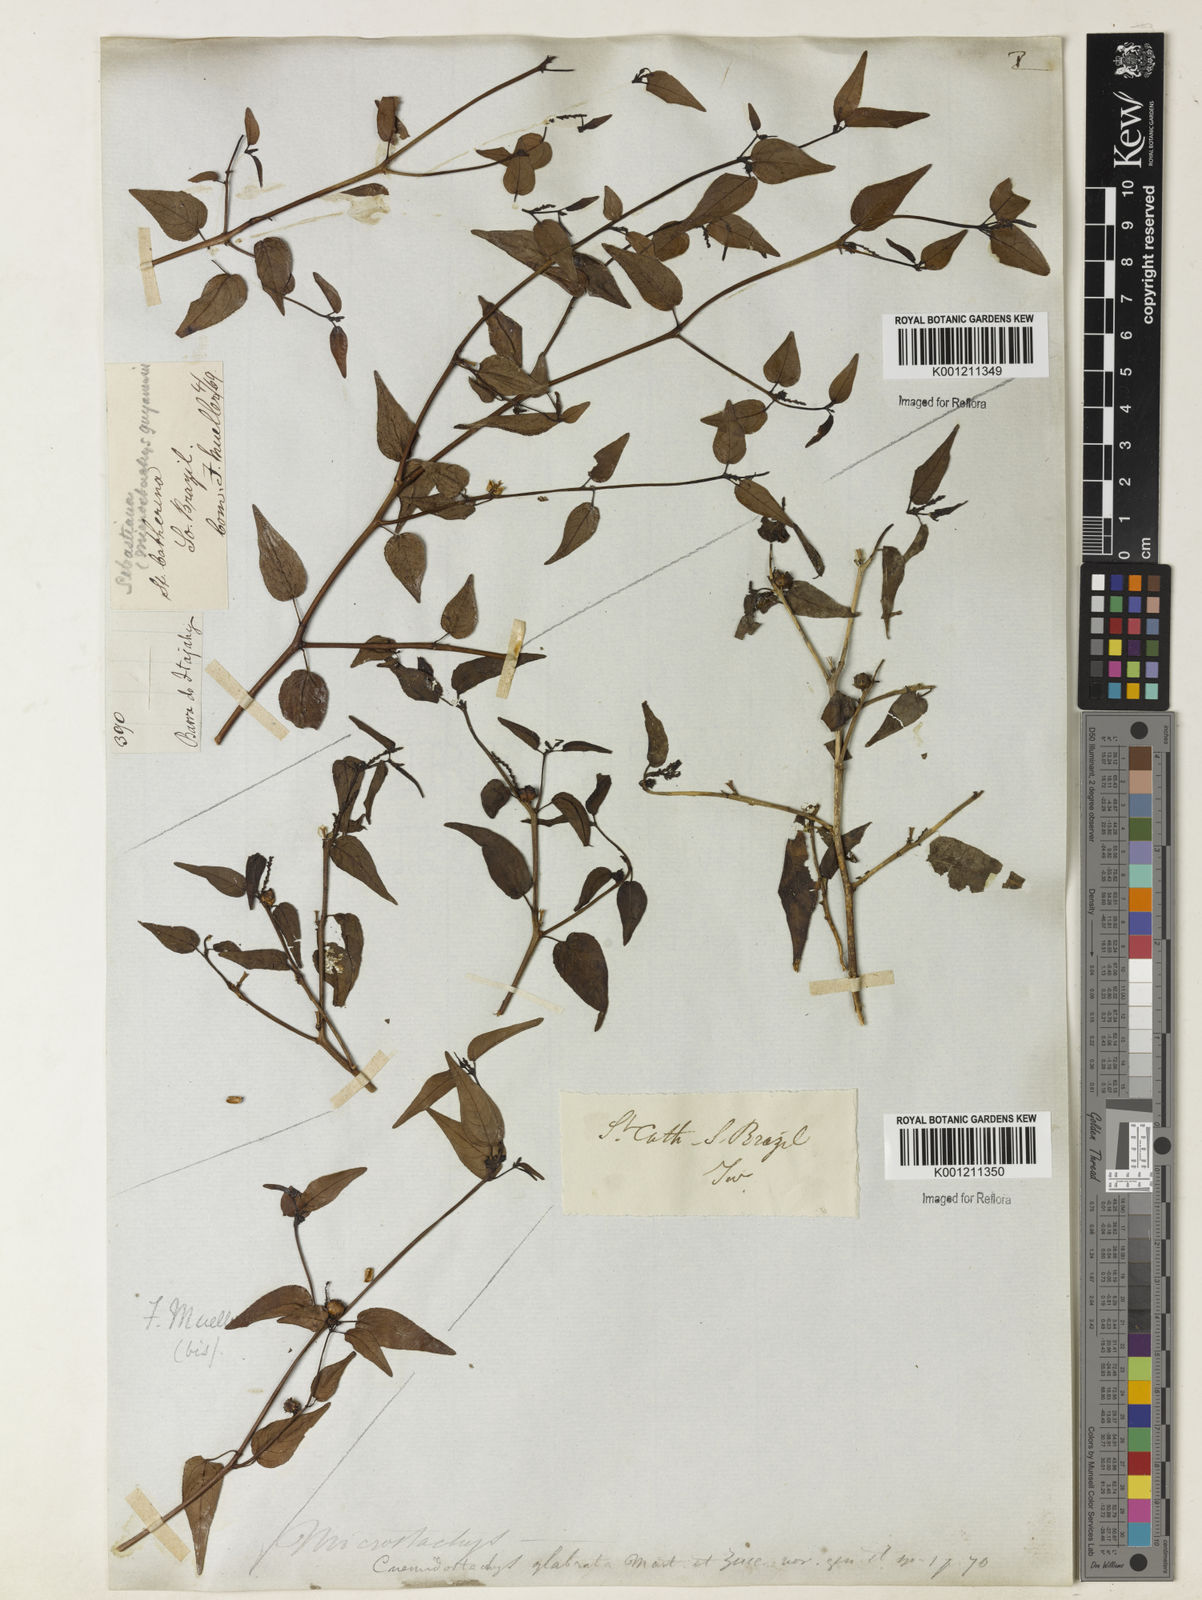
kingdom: Plantae
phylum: Tracheophyta
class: Magnoliopsida
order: Malpighiales
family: Euphorbiaceae
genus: Microstachys
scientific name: Microstachys corniculata
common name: Hato tejas
